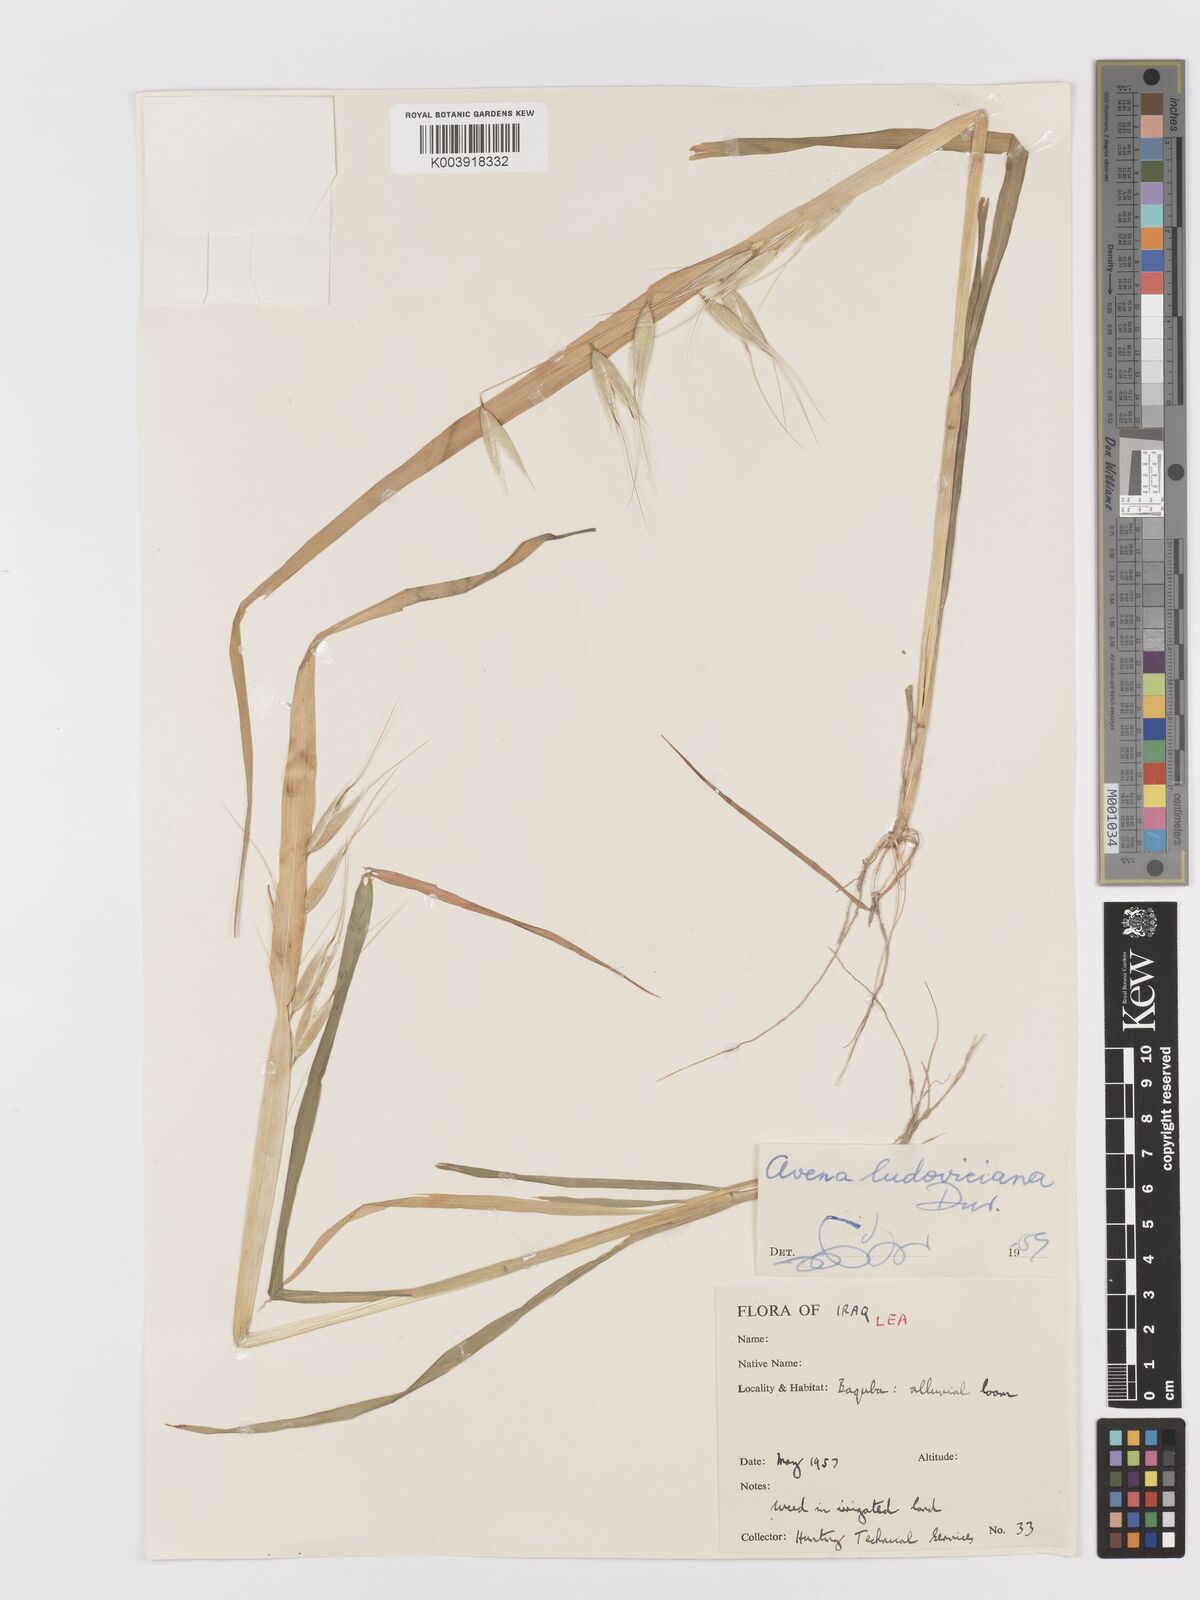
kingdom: Plantae
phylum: Tracheophyta
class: Liliopsida
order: Poales
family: Poaceae
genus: Avena
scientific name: Avena sterilis
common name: Animated oat
